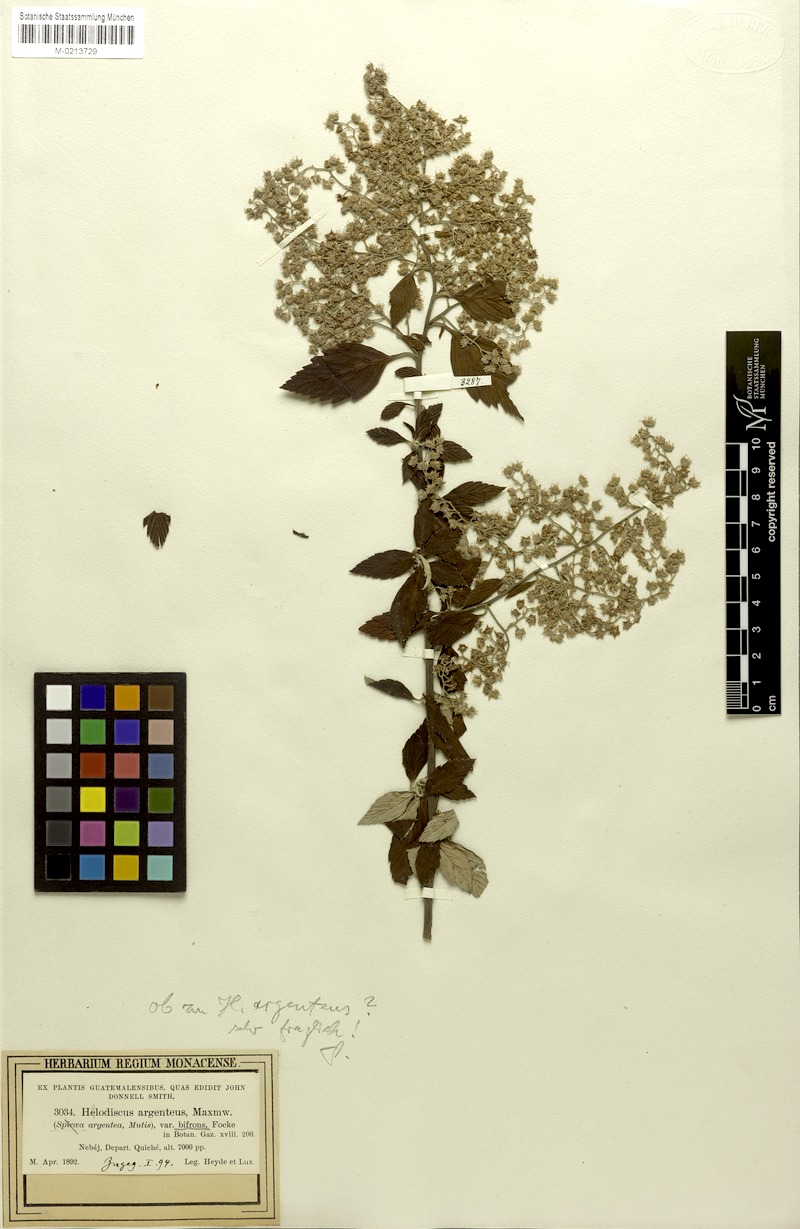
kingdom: Plantae
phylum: Tracheophyta
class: Magnoliopsida
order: Rosales
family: Rosaceae
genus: Holodiscus
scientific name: Holodiscus argenteus
